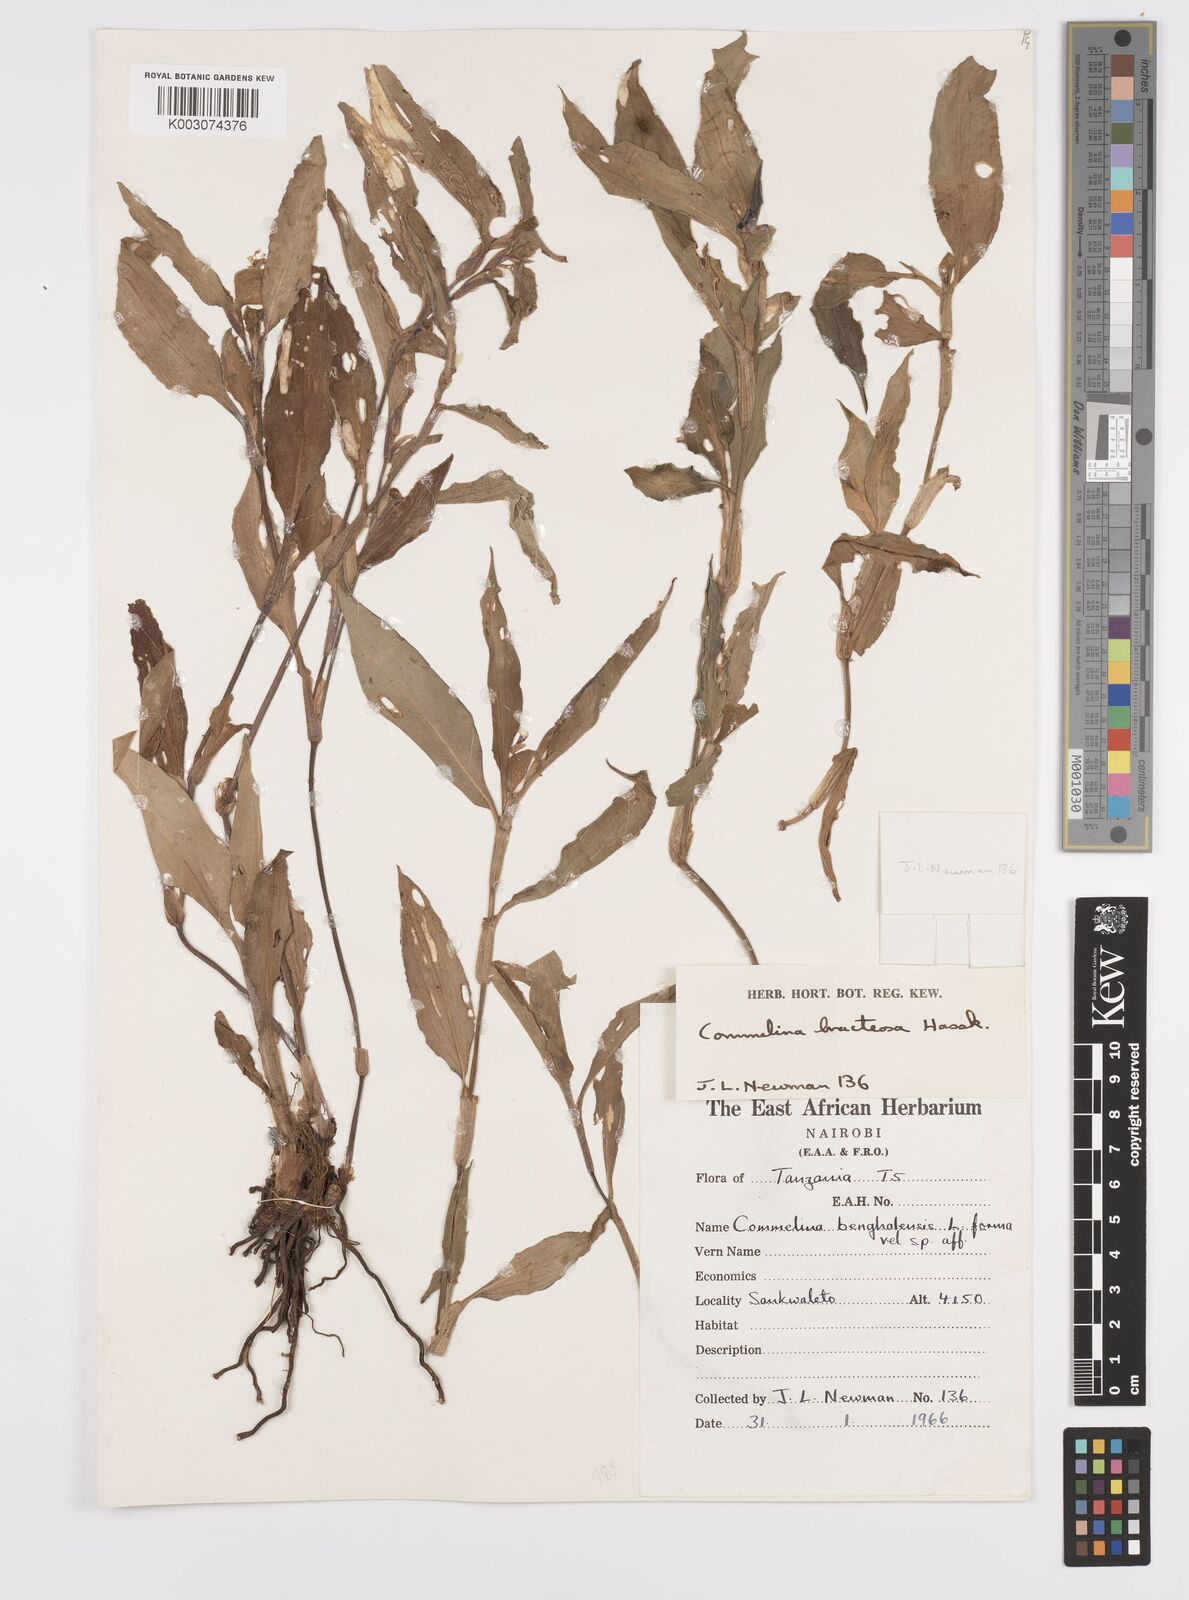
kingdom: Plantae
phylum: Tracheophyta
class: Liliopsida
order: Commelinales
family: Commelinaceae
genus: Commelina
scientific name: Commelina benghalensis
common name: Jio
